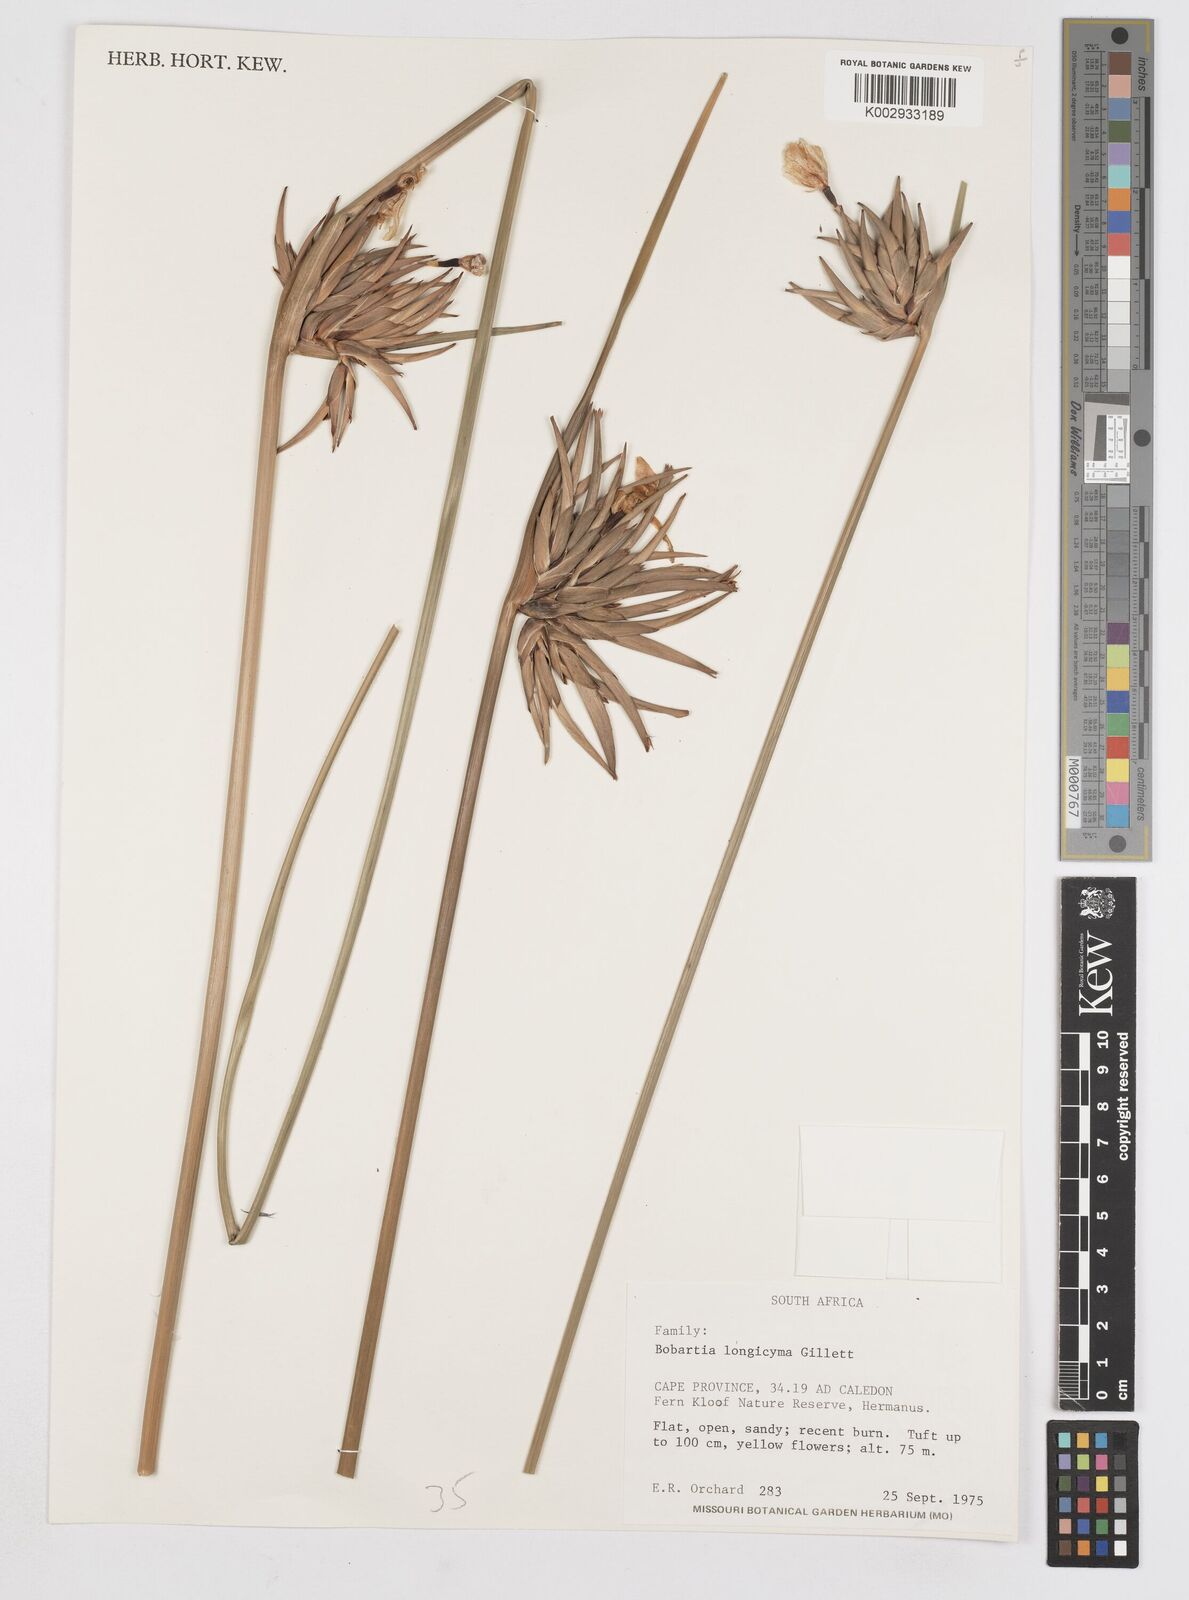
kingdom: Plantae
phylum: Tracheophyta
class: Liliopsida
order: Asparagales
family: Iridaceae
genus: Bobartia
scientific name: Bobartia longicyma
